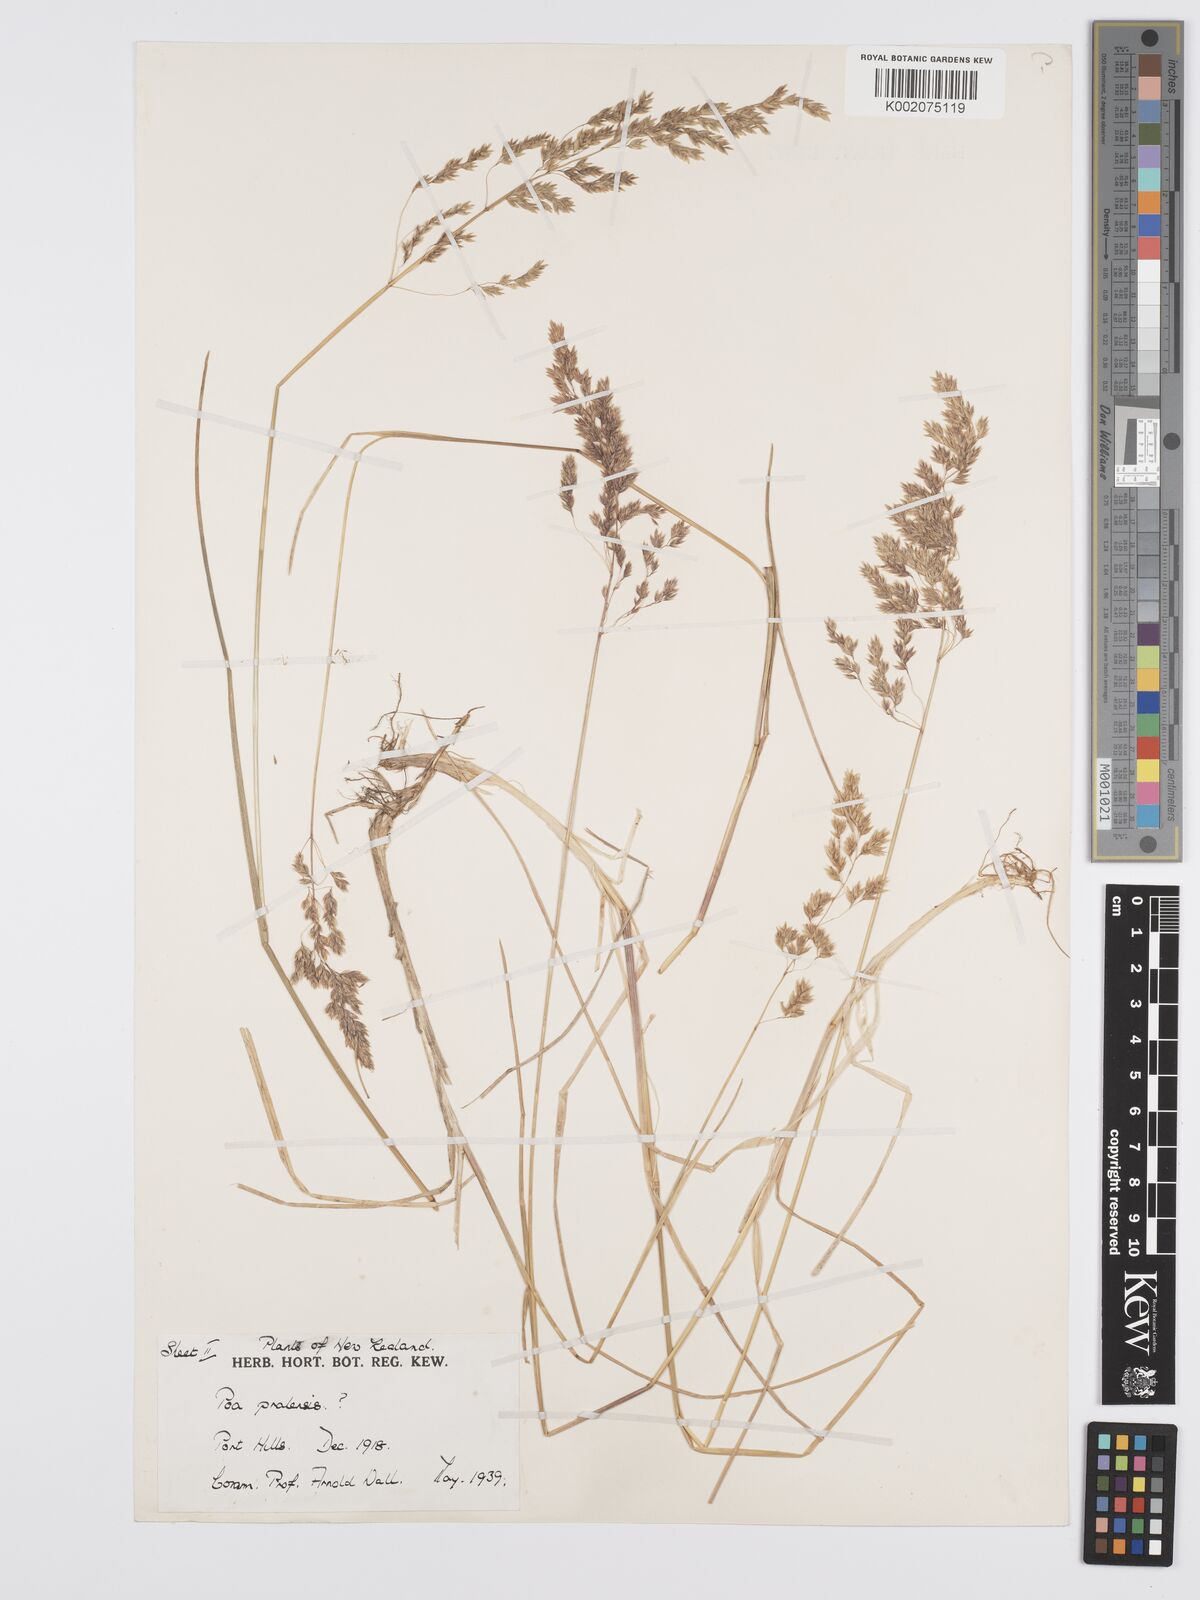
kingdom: Plantae
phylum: Tracheophyta
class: Liliopsida
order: Poales
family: Poaceae
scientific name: Poaceae
